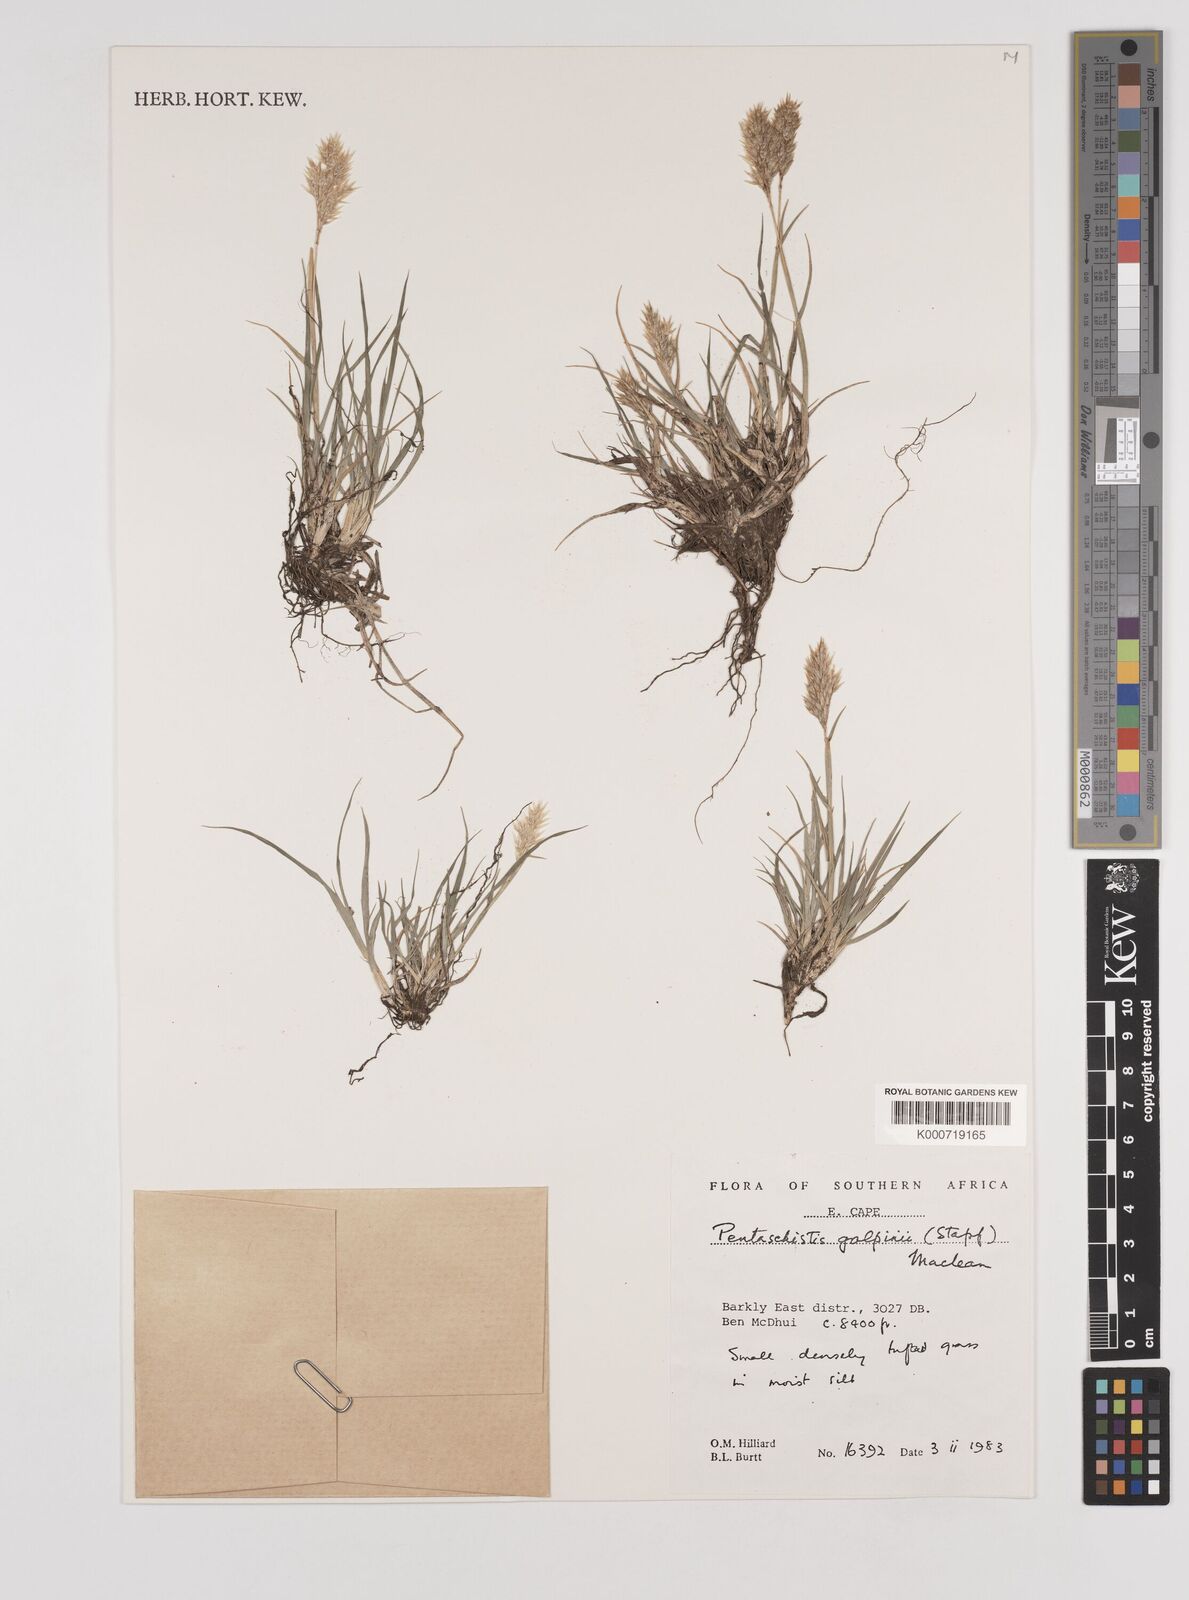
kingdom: Plantae
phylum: Tracheophyta
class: Liliopsida
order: Poales
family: Poaceae
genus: Pentameris
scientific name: Pentameris galpinii
